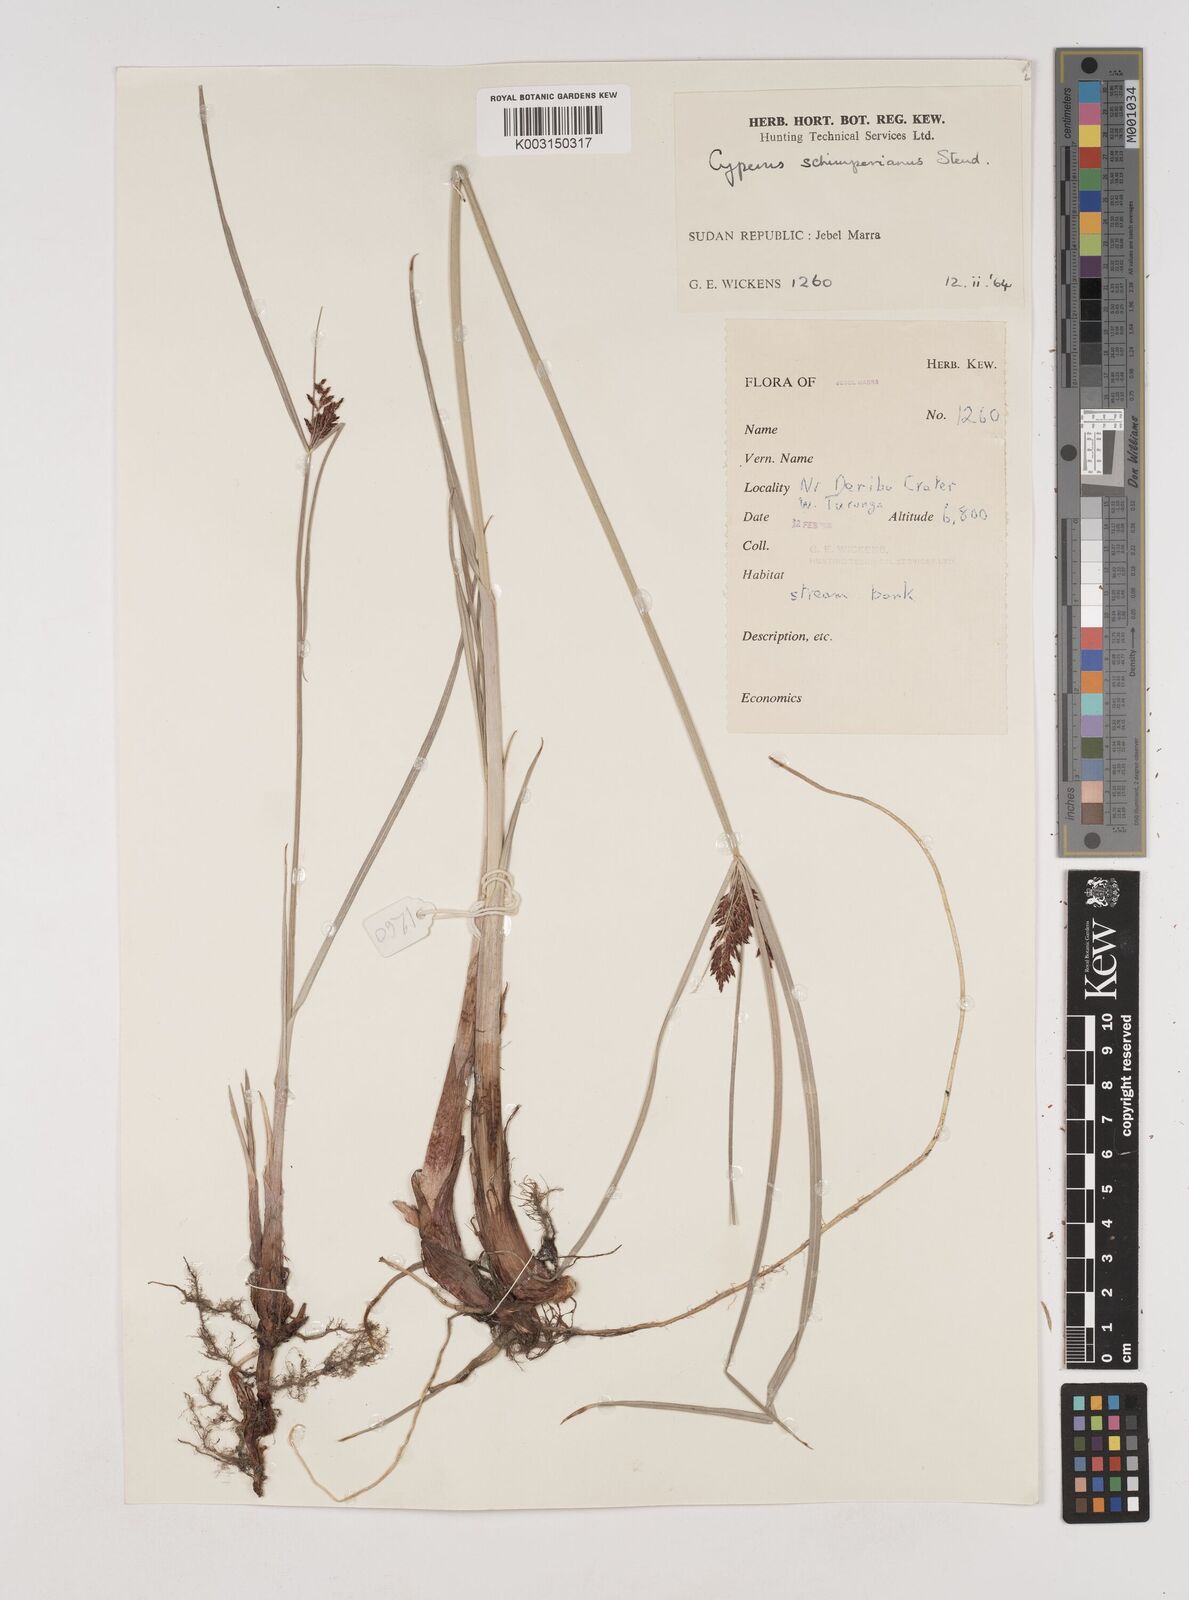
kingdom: Plantae
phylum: Tracheophyta
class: Liliopsida
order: Poales
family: Cyperaceae
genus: Cyperus
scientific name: Cyperus schimperianus
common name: Schimper flatsedge
